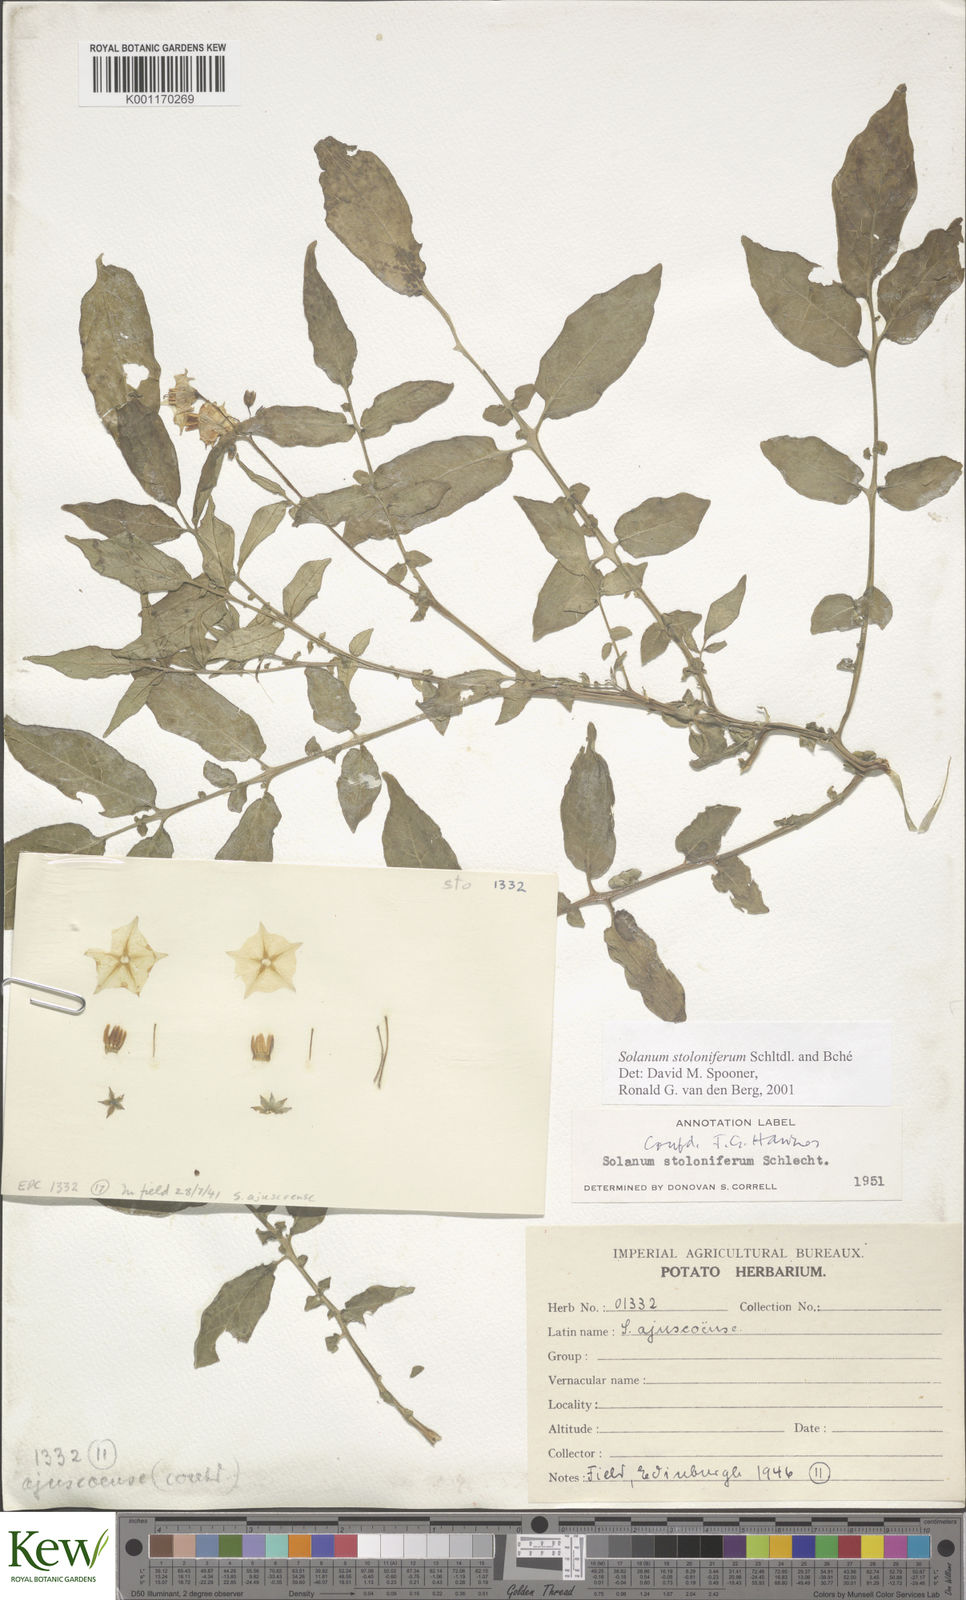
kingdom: Plantae
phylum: Tracheophyta
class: Magnoliopsida
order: Solanales
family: Solanaceae
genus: Solanum
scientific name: Solanum stoloniferum
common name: Fendler's nighshade
